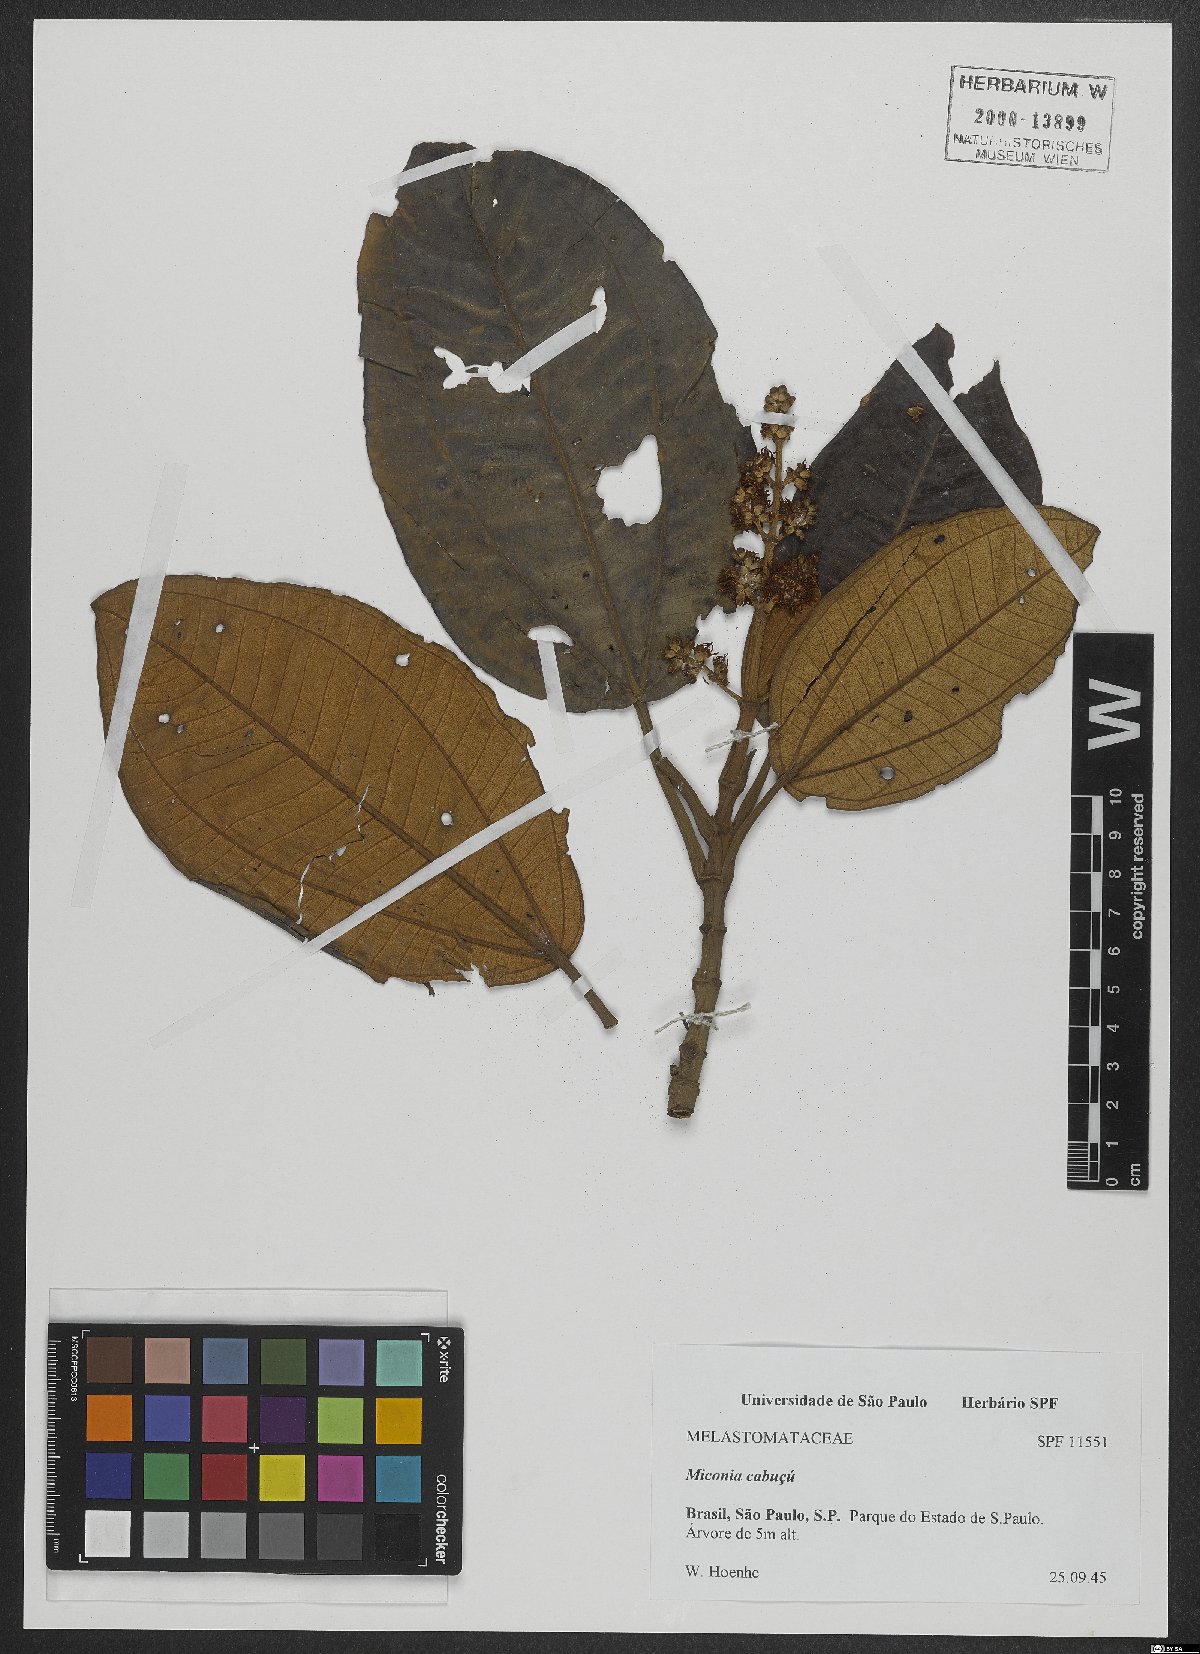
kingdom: Plantae
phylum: Tracheophyta
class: Magnoliopsida
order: Myrtales
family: Melastomataceae
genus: Miconia
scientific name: Miconia cabucu
